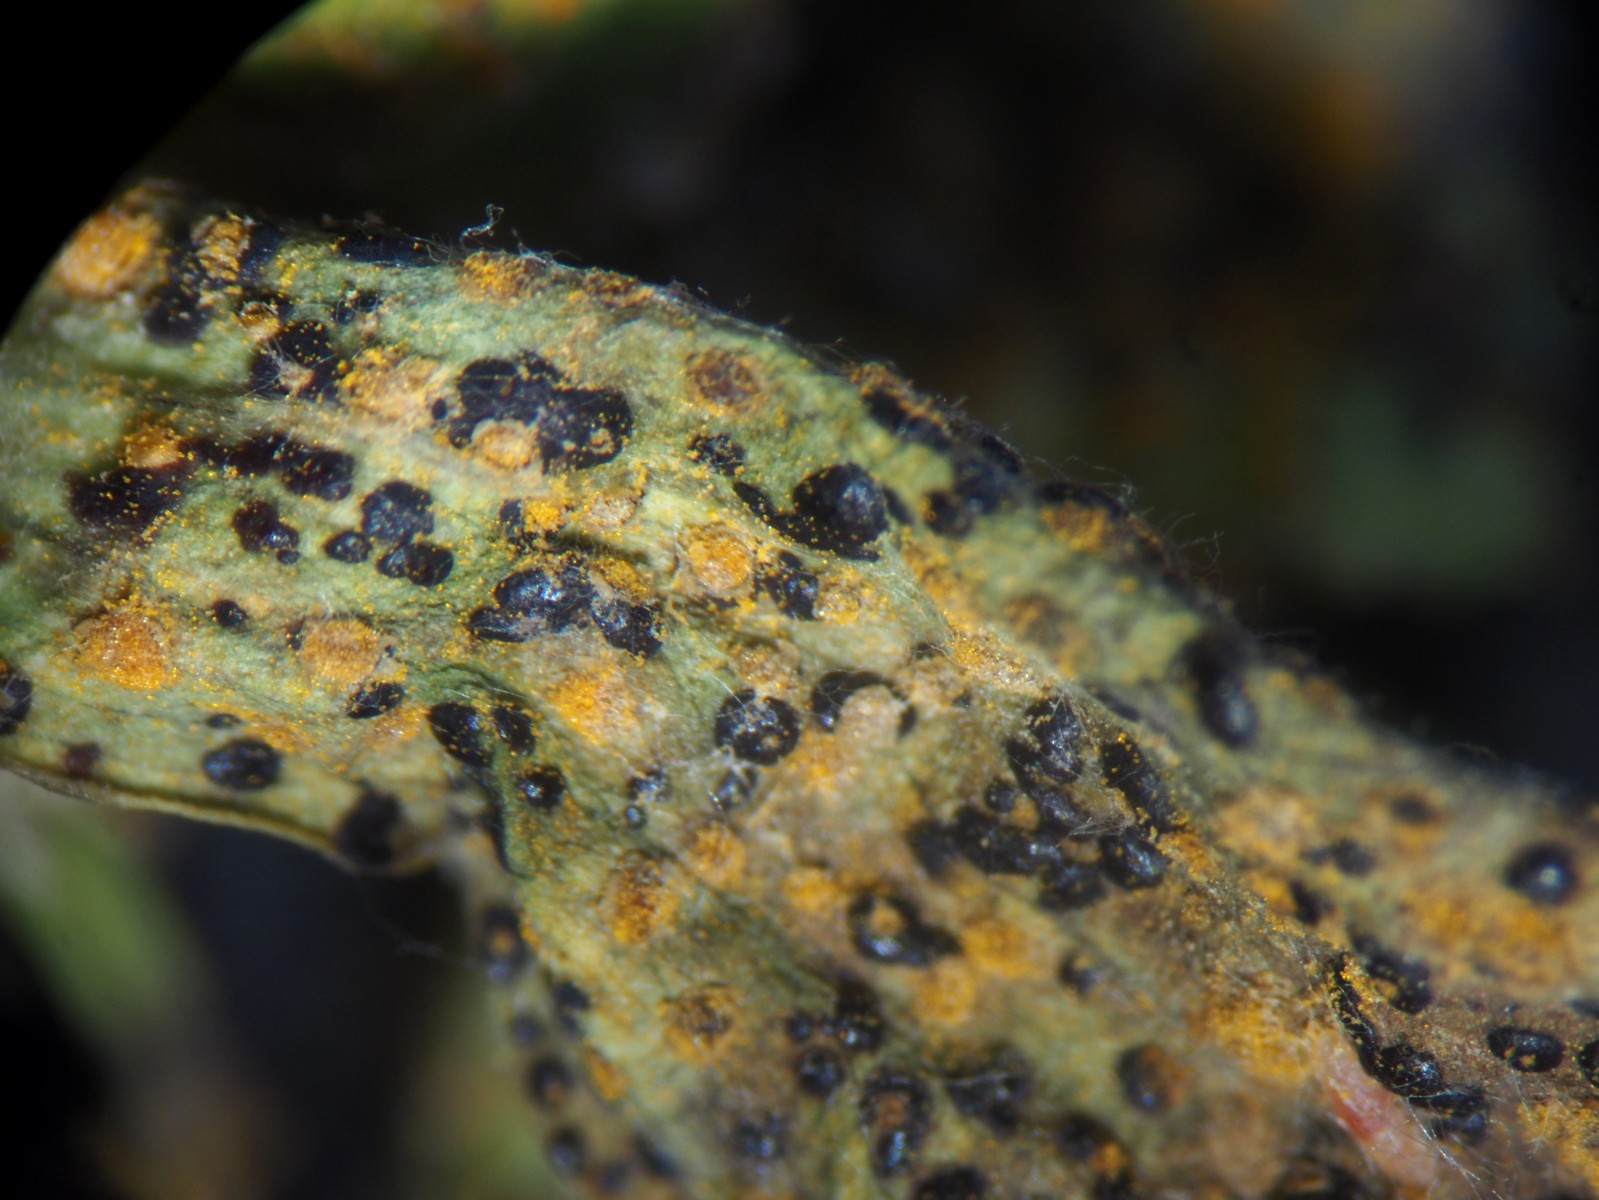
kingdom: Fungi
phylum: Basidiomycota
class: Pucciniomycetes
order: Pucciniales
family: Melampsoraceae
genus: Melampsora
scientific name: Melampsora euphorbiae
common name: vortemælk-skorperust
